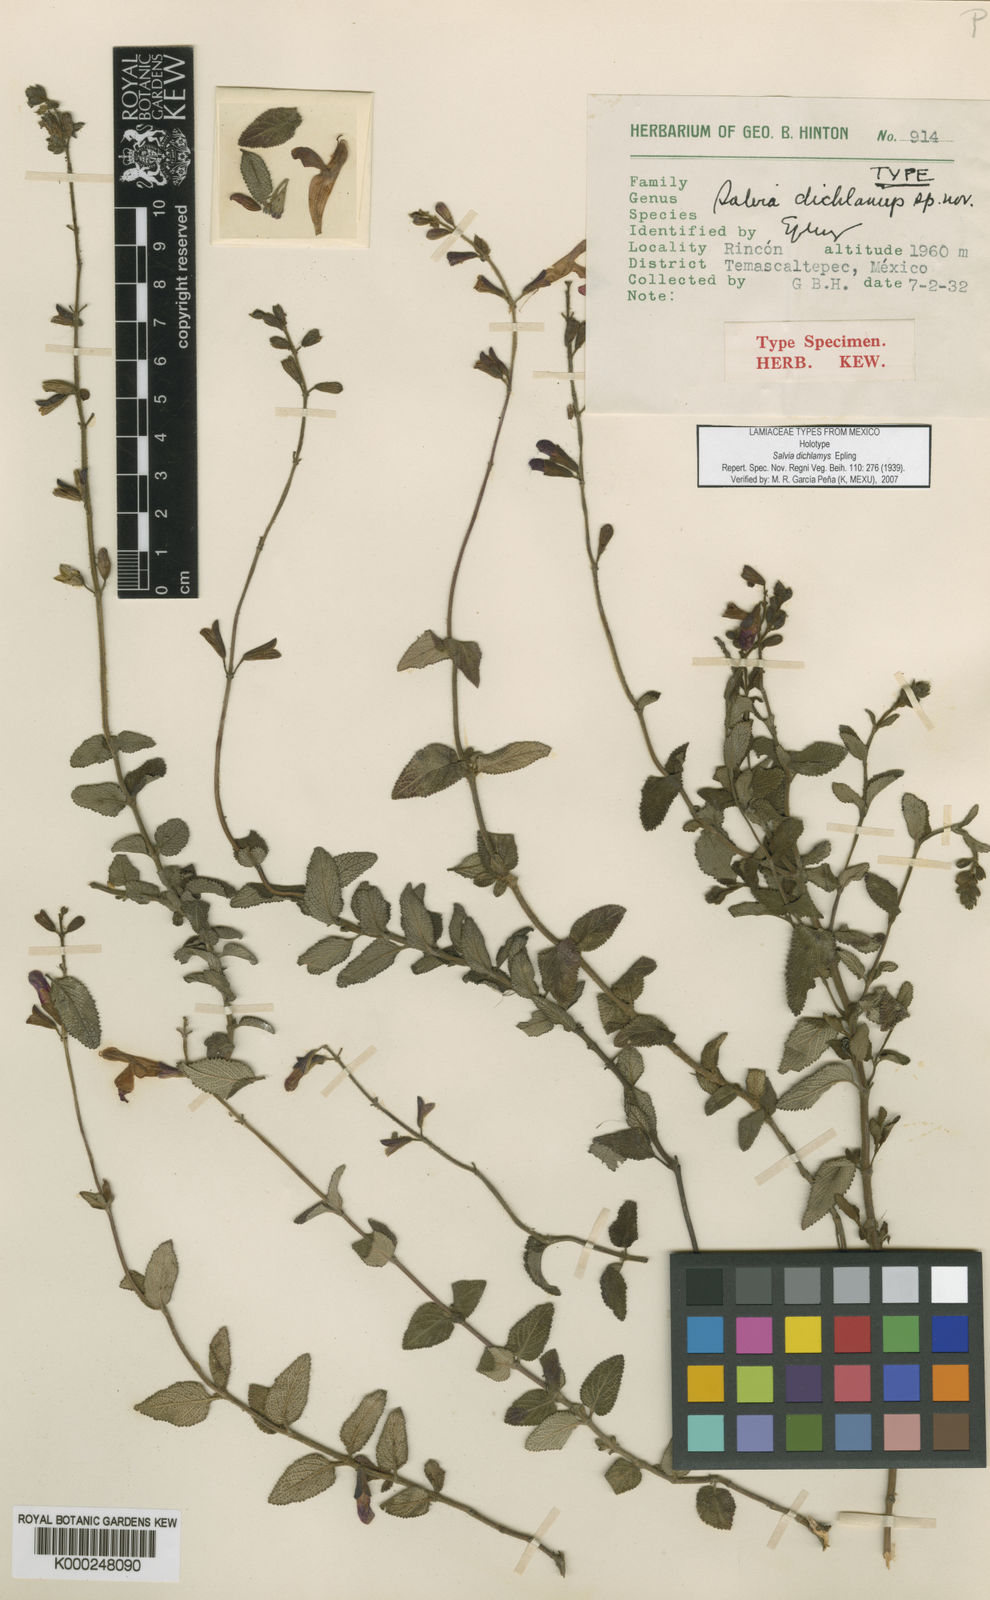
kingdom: Plantae
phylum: Tracheophyta
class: Magnoliopsida
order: Lamiales
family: Lamiaceae
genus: Salvia
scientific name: Salvia dichlamys
